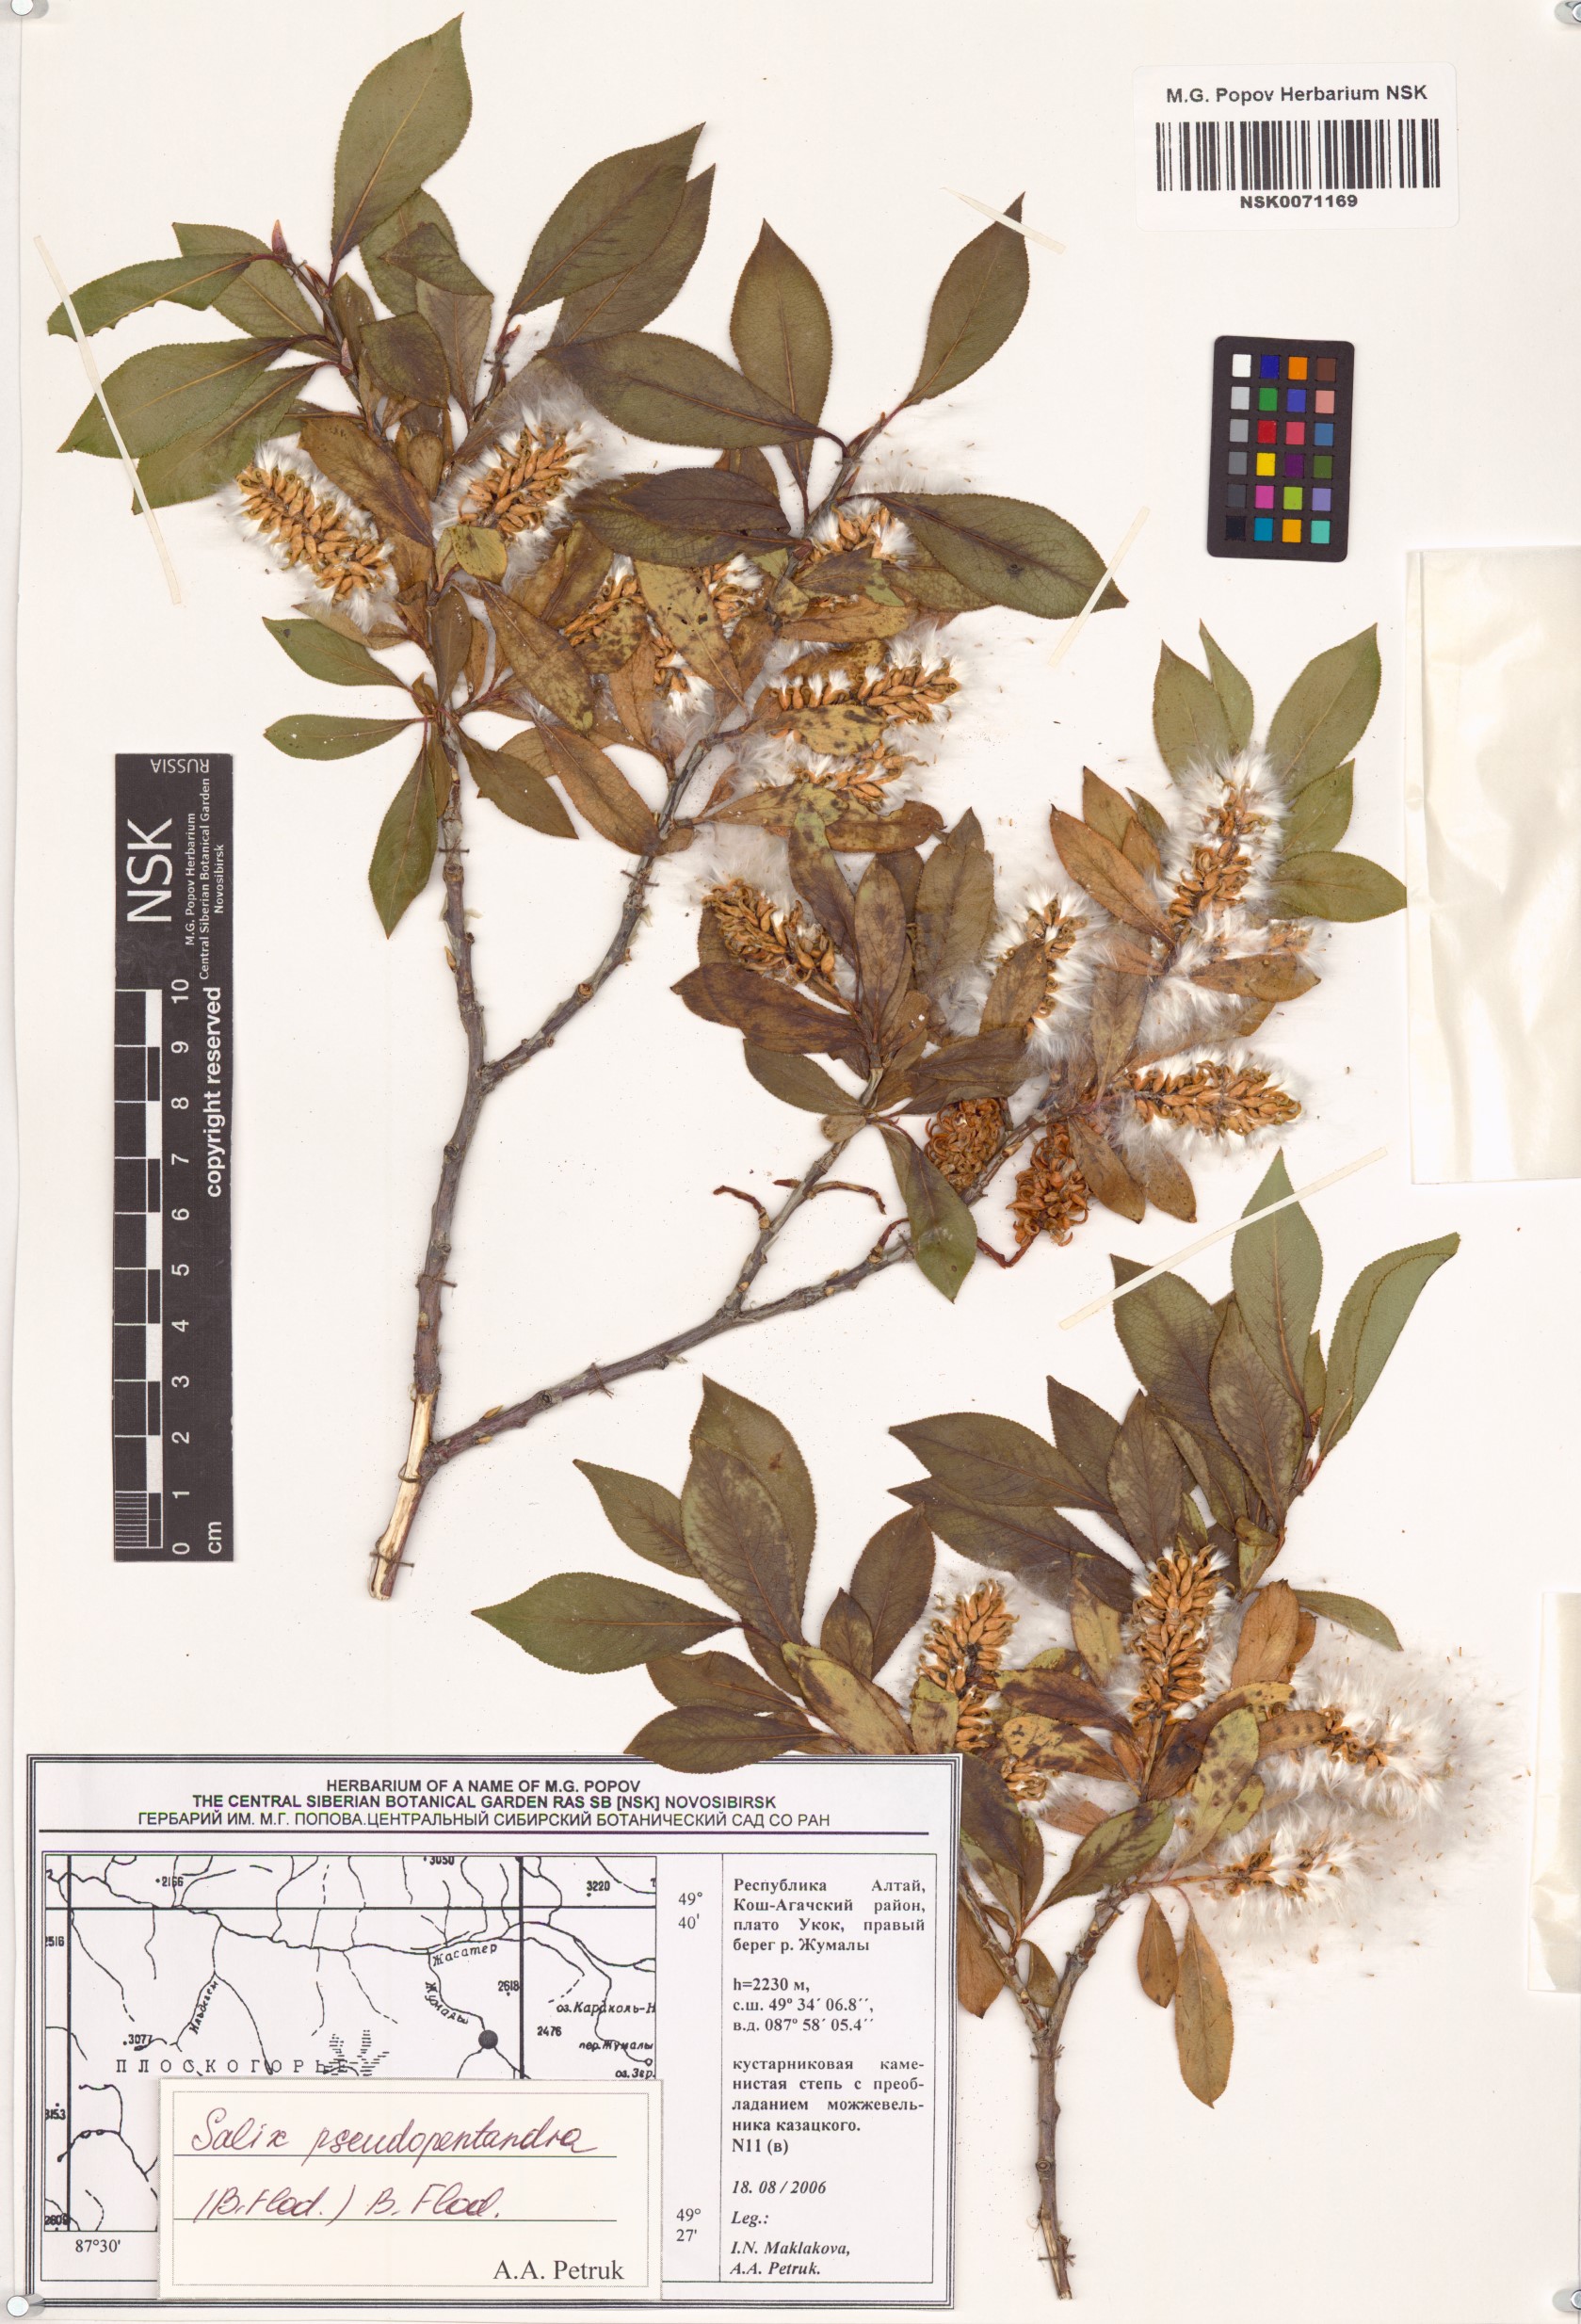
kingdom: Plantae
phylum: Tracheophyta
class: Magnoliopsida
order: Malpighiales
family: Salicaceae
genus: Salix
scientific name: Salix pseudopentandra
